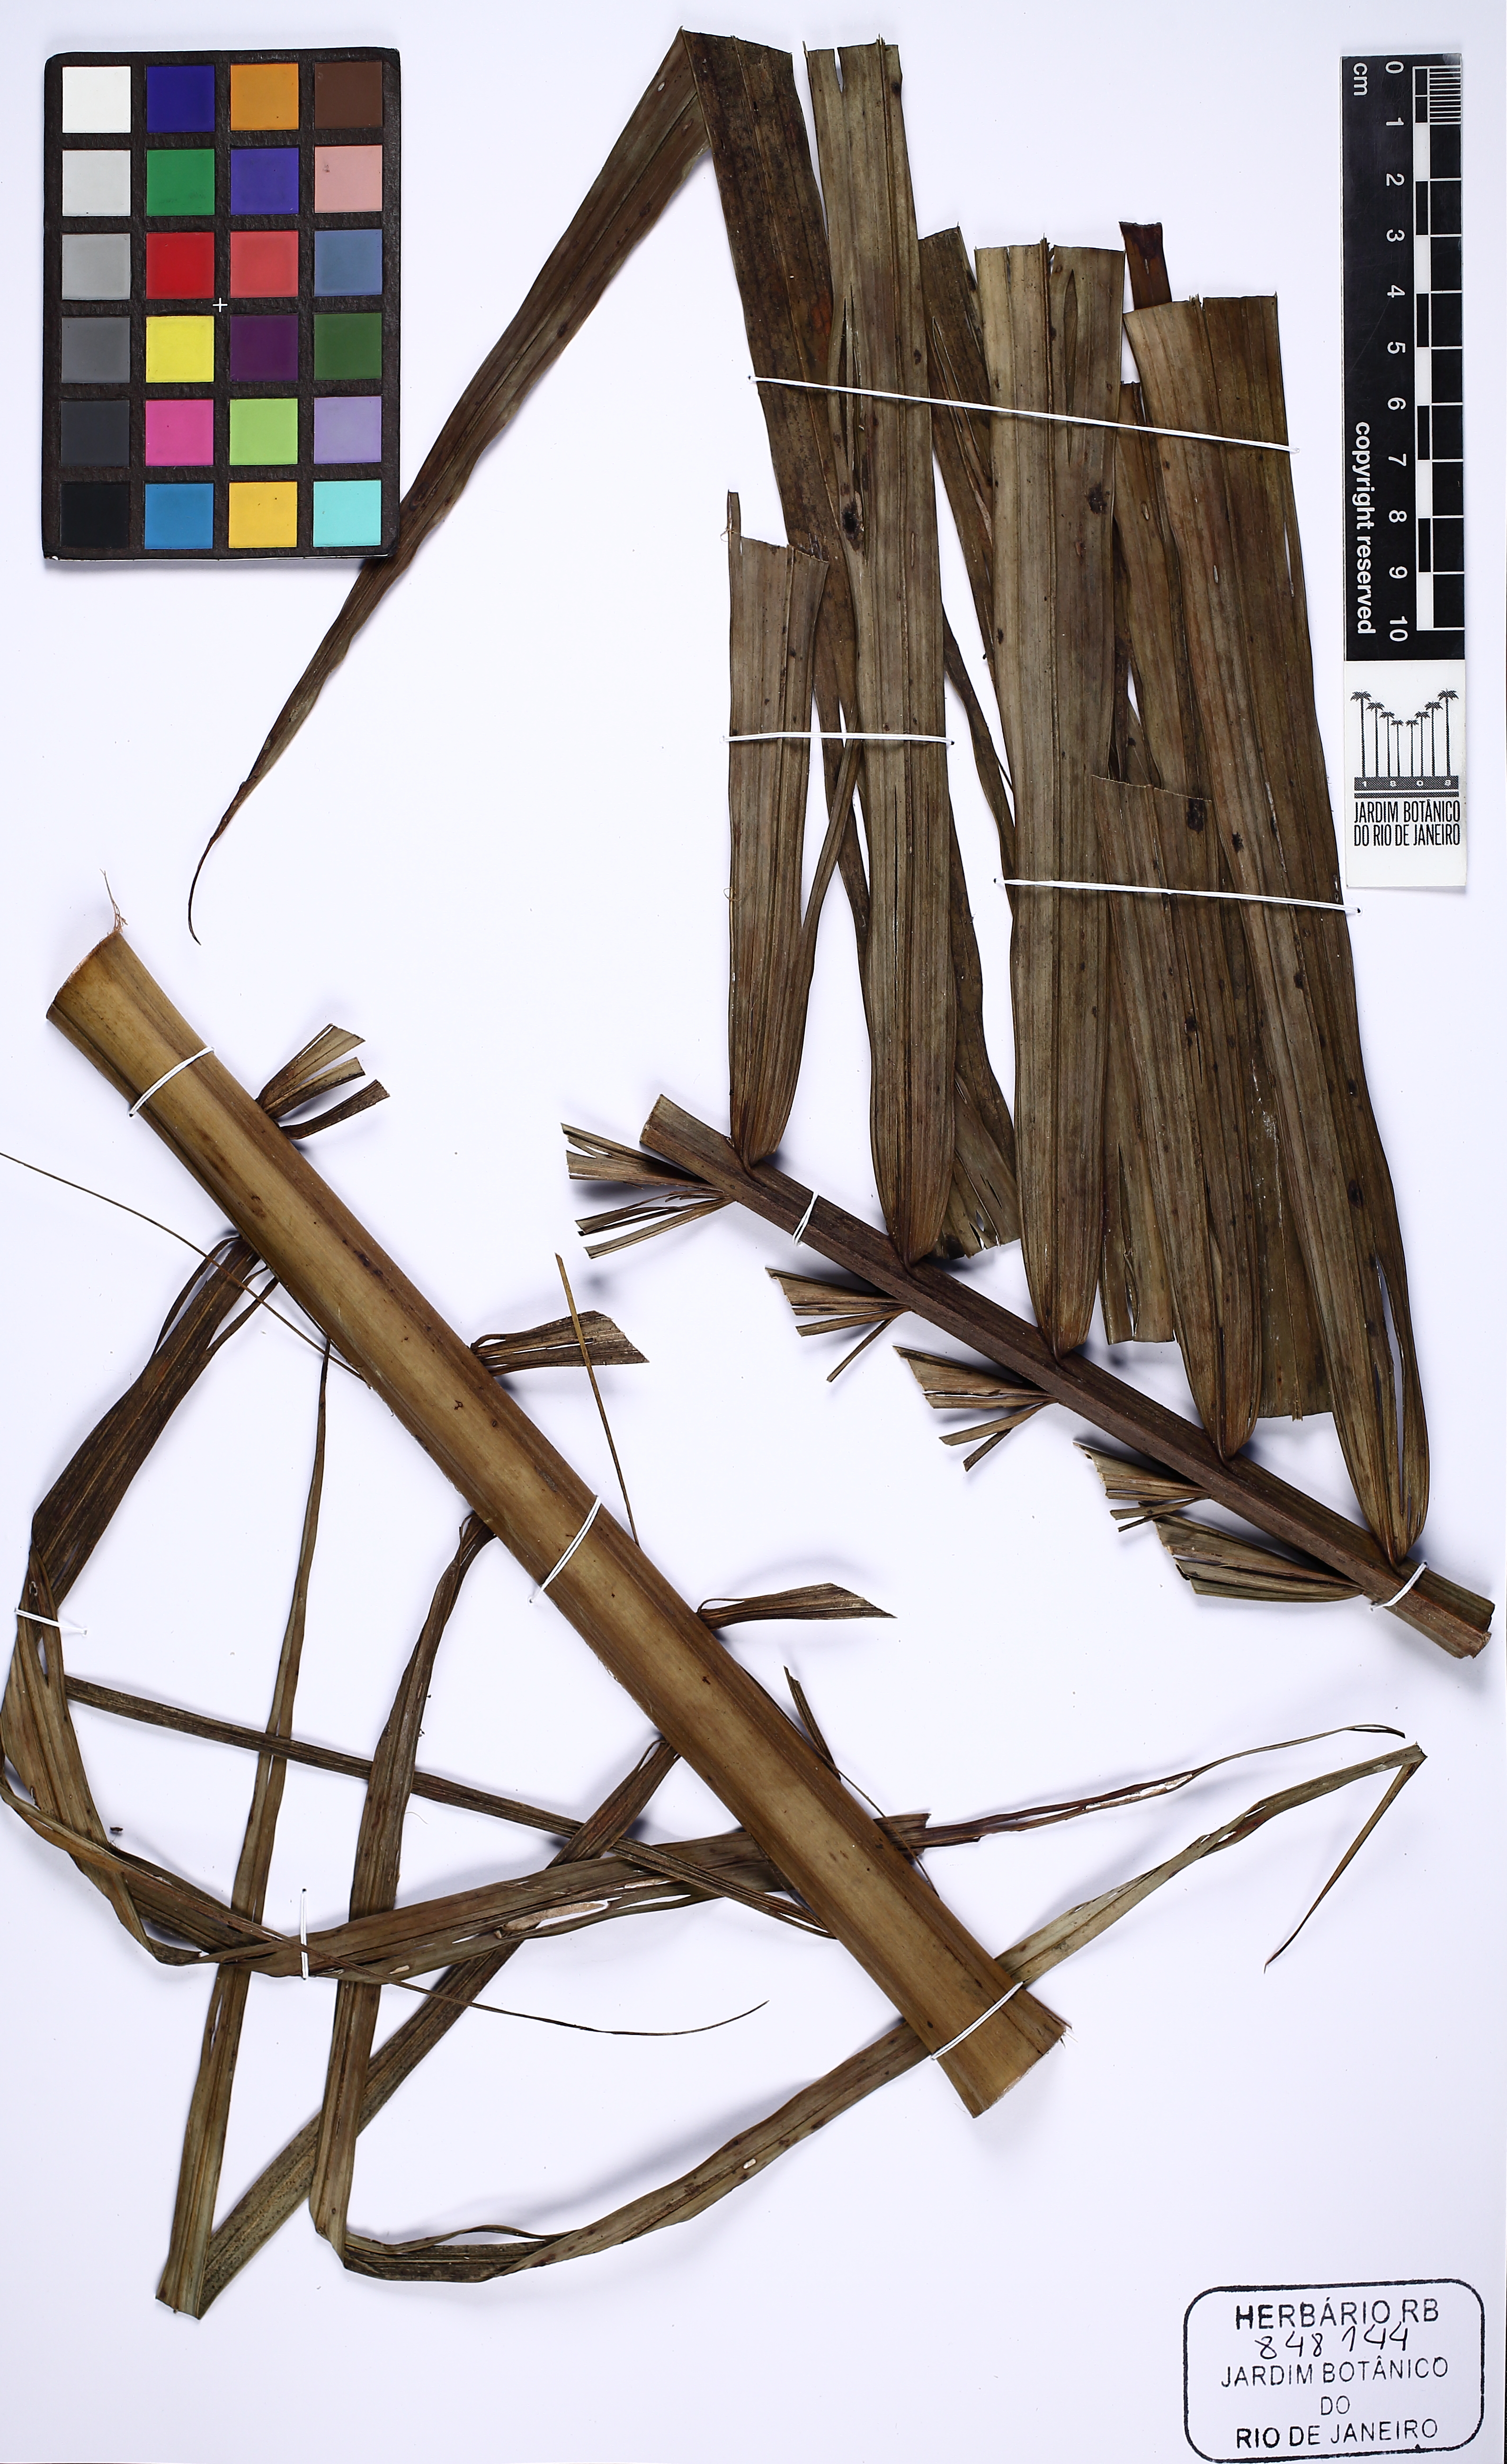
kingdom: Plantae
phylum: Tracheophyta
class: Liliopsida
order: Arecales
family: Arecaceae
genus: Euterpe
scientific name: Euterpe oleracea
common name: Assai palm
